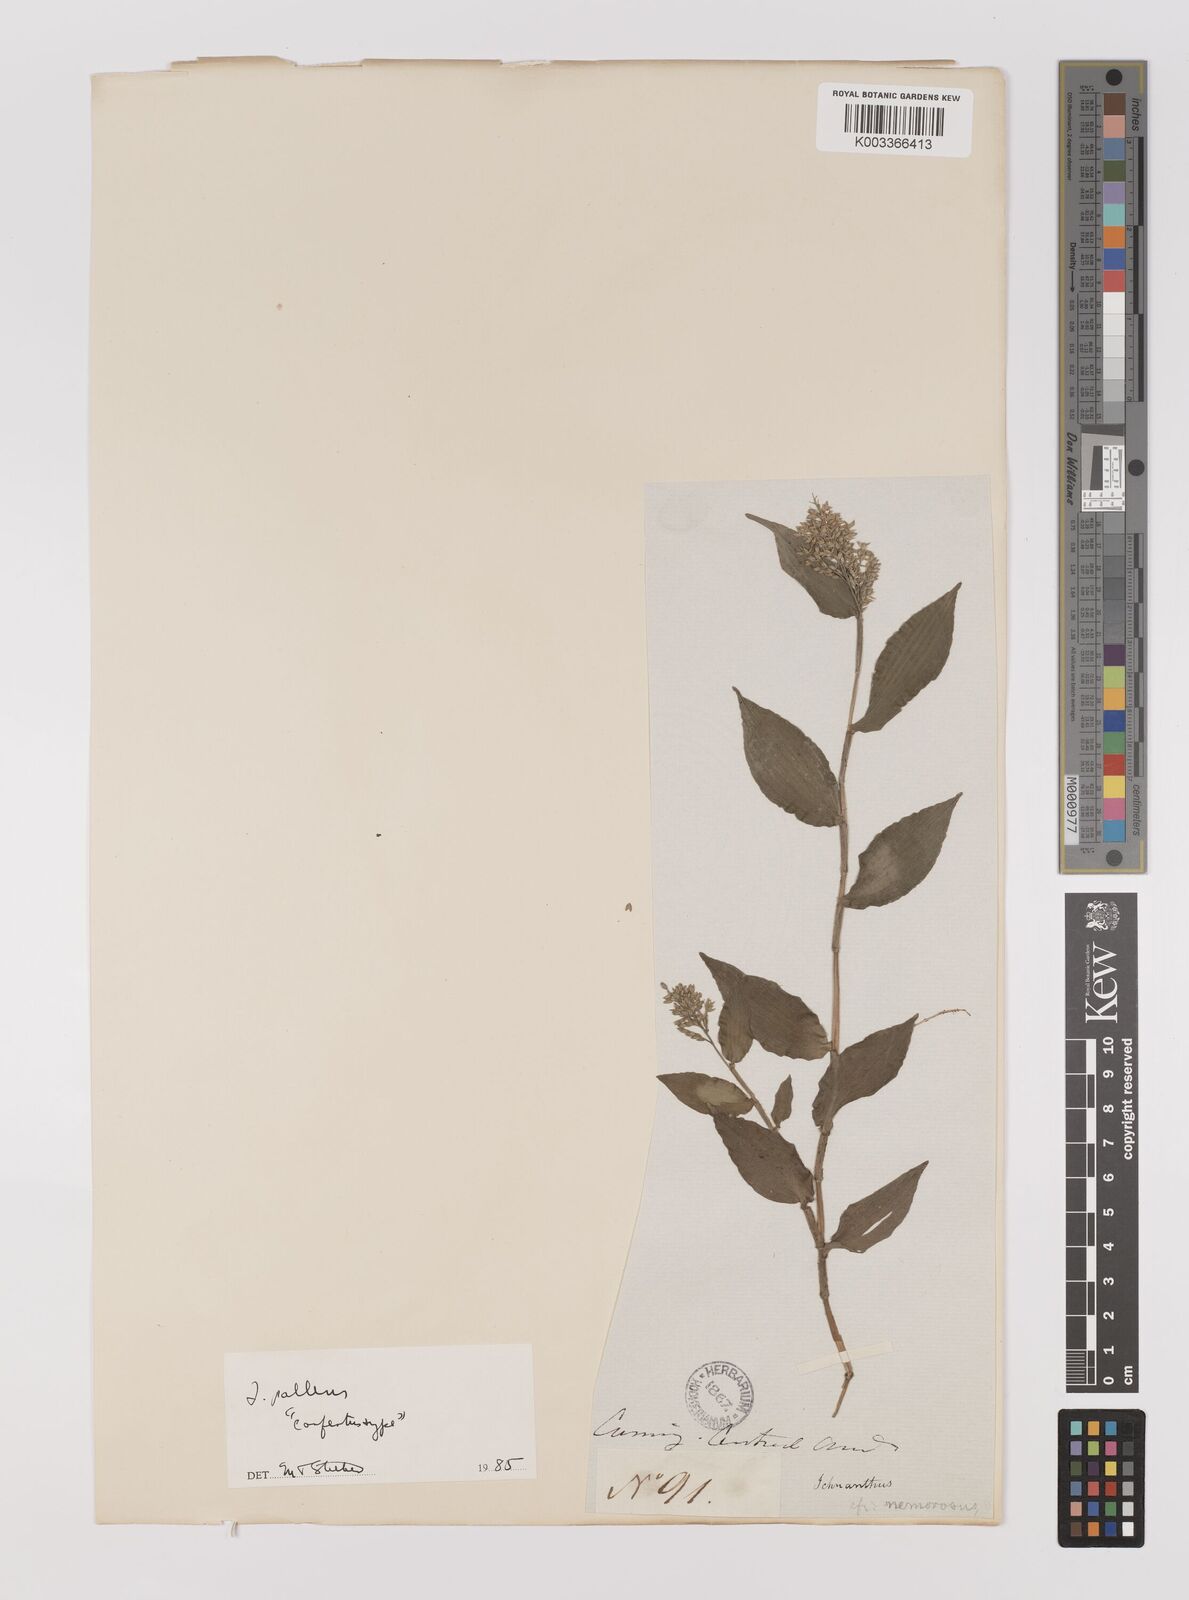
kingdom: Plantae
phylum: Tracheophyta
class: Liliopsida
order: Poales
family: Poaceae
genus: Ichnanthus
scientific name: Ichnanthus pallens
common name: Water grass
